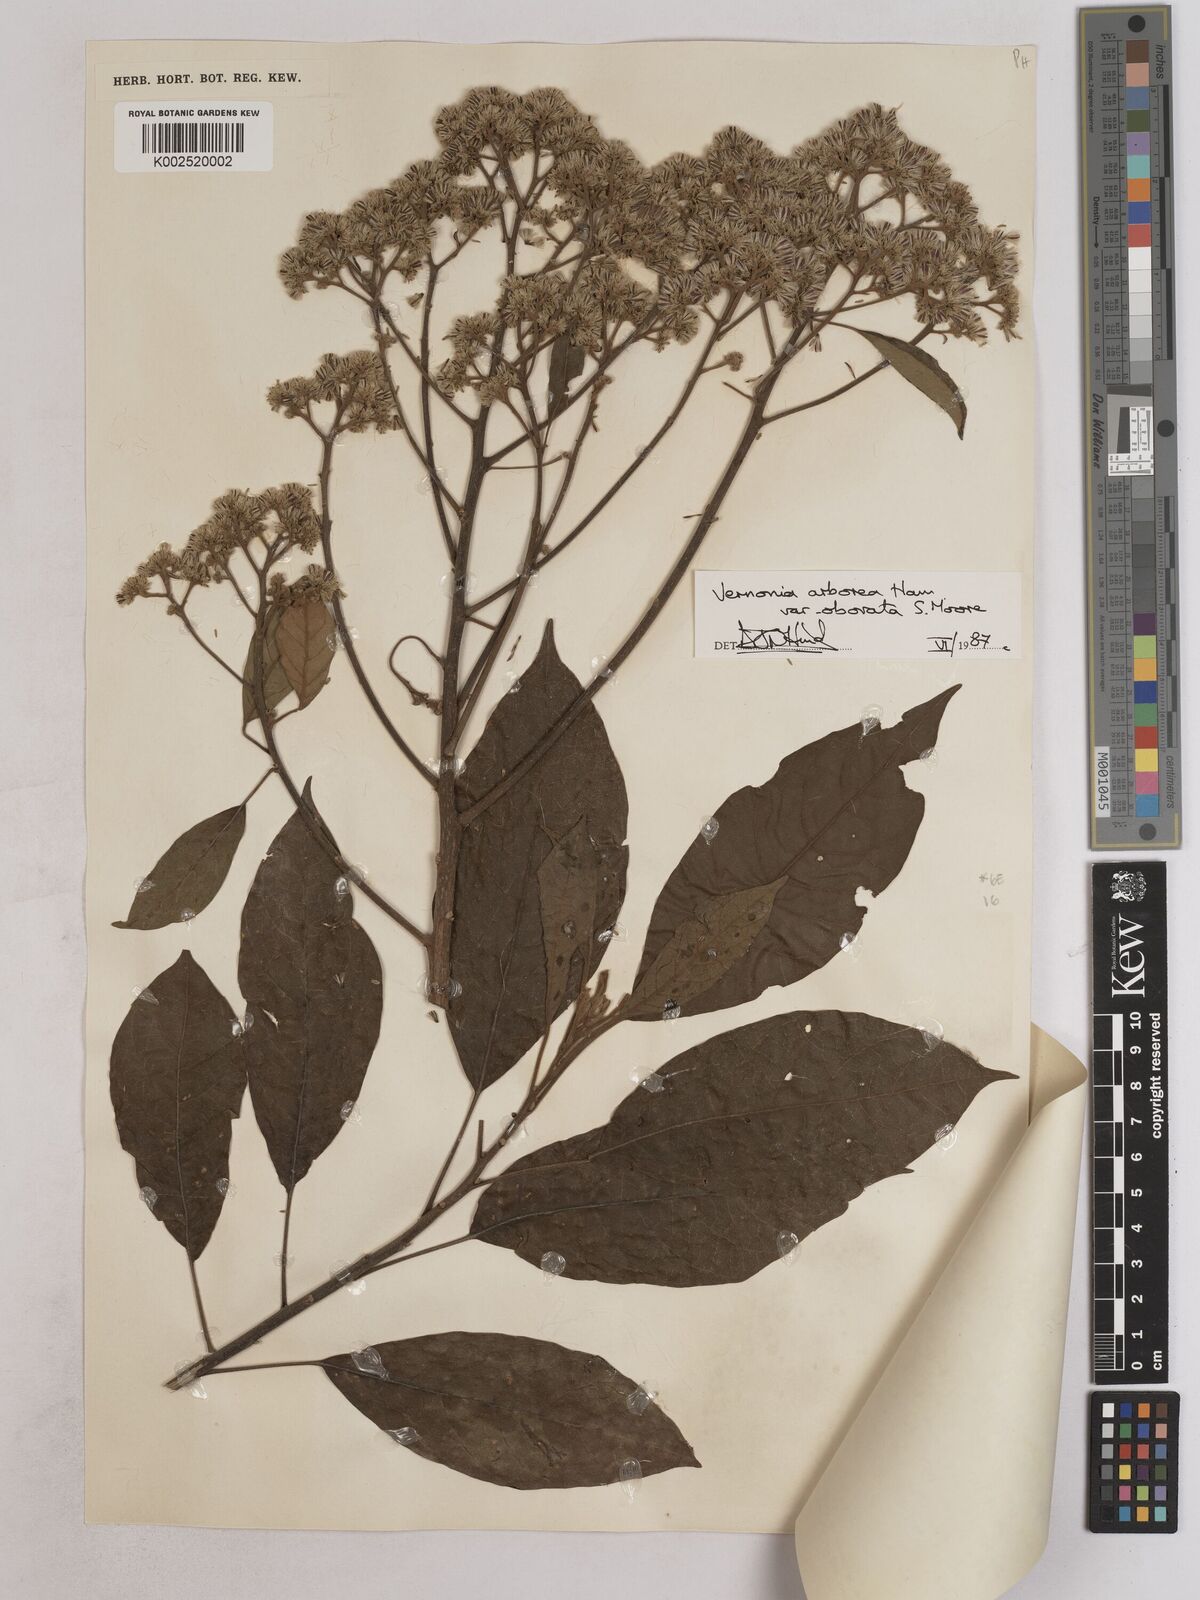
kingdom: Plantae
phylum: Tracheophyta
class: Magnoliopsida
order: Asterales
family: Asteraceae
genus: Strobocalyx
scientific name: Strobocalyx arborea
